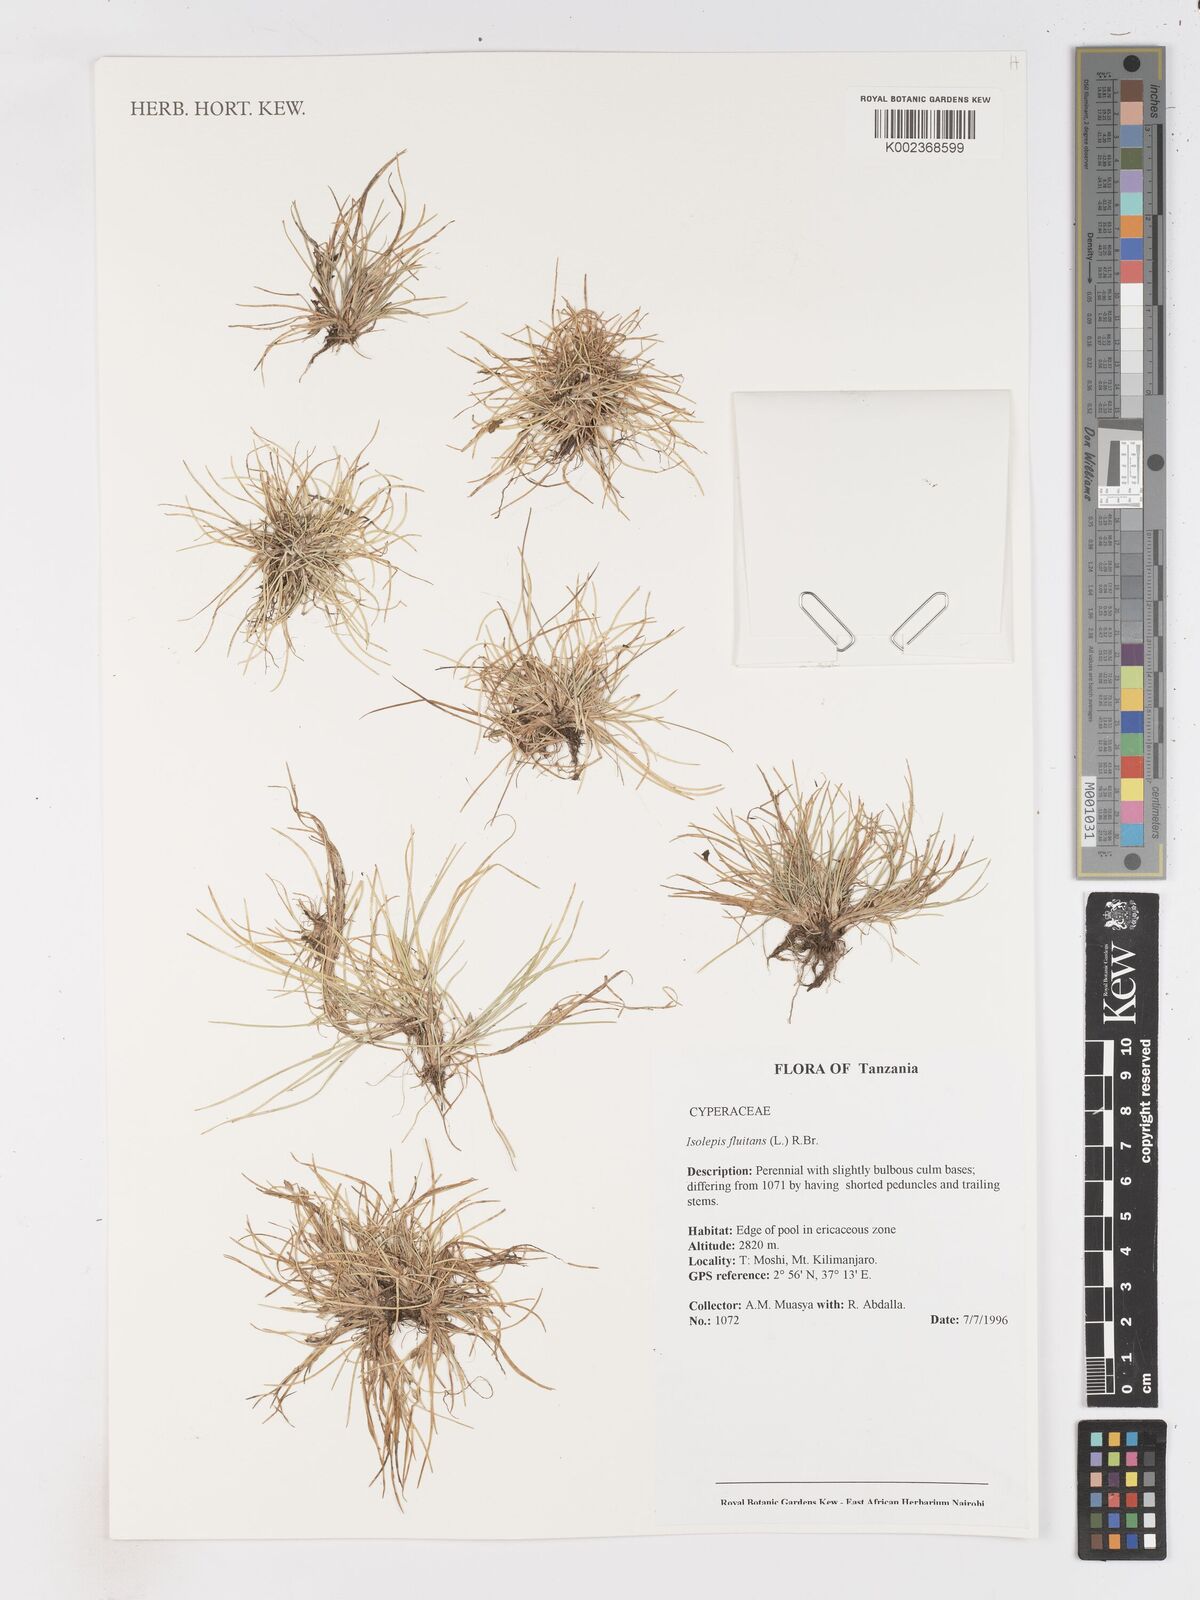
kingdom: Plantae
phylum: Tracheophyta
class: Liliopsida
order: Poales
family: Cyperaceae
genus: Isolepis
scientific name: Isolepis fluitans
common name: Floating club-rush
